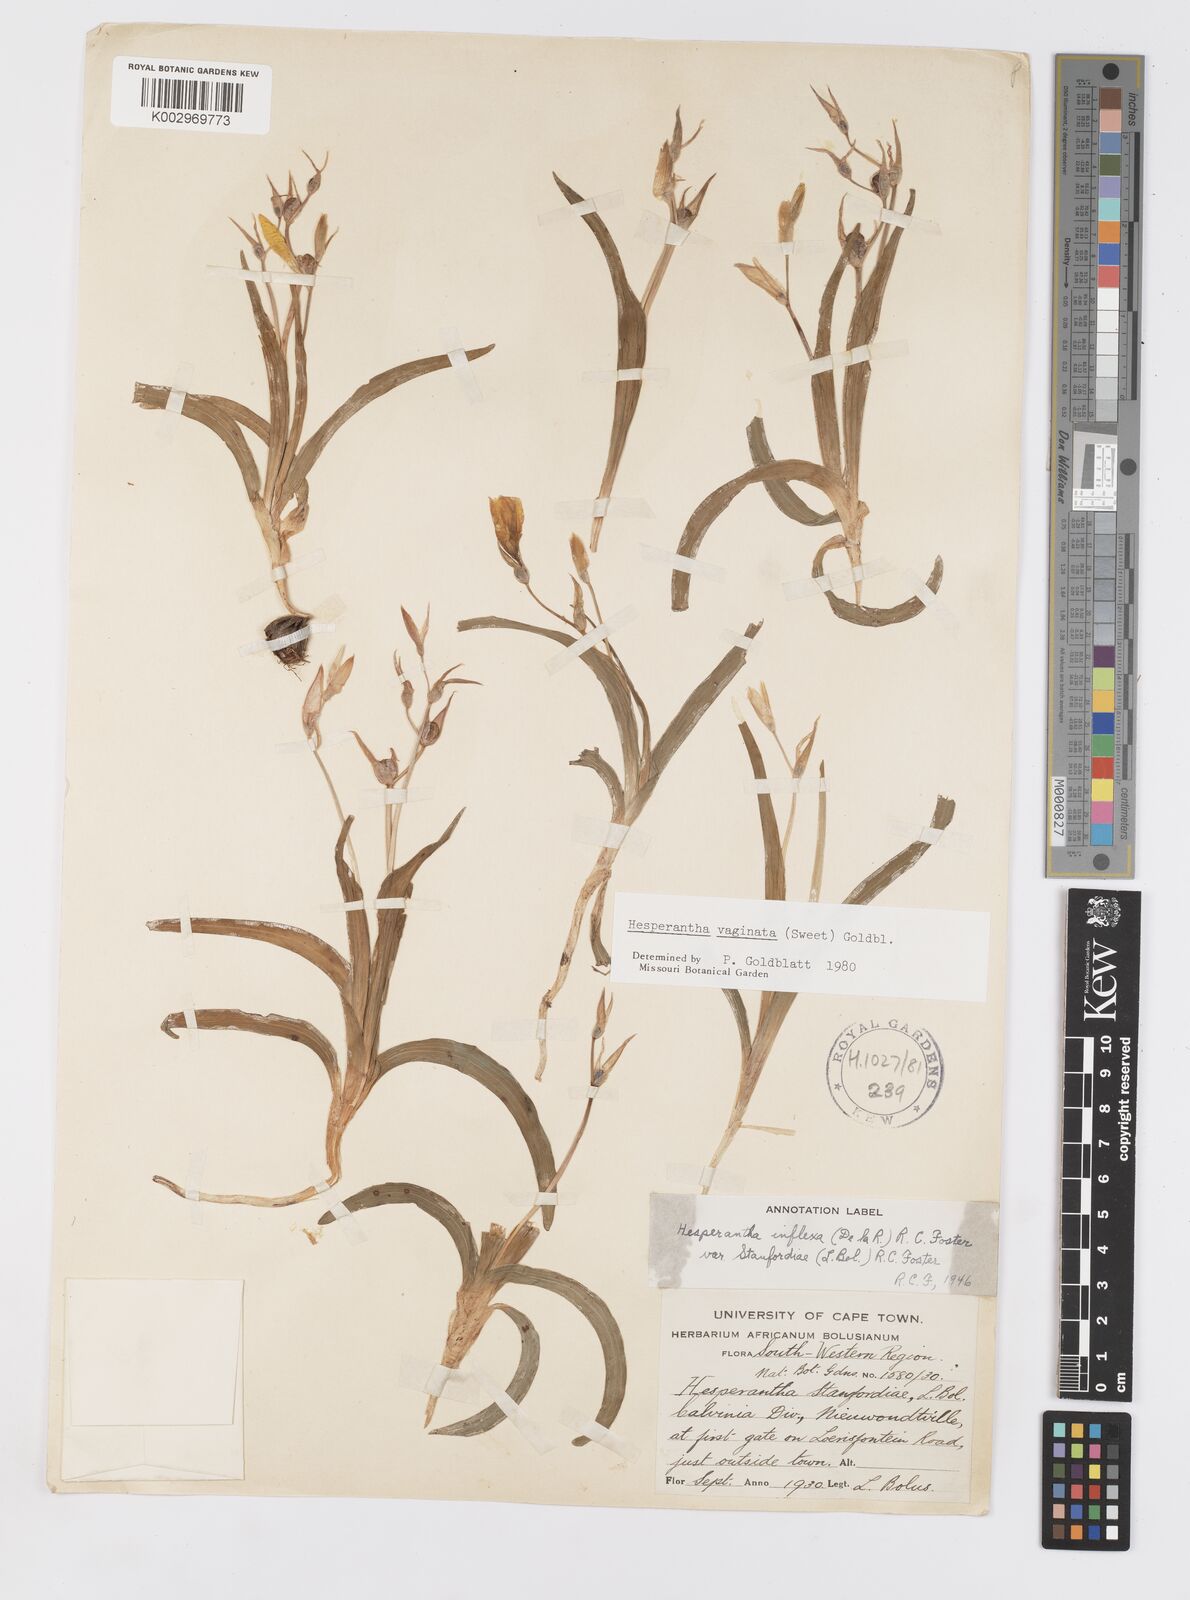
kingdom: Plantae
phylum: Tracheophyta
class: Liliopsida
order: Asparagales
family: Iridaceae
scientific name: Iridaceae
